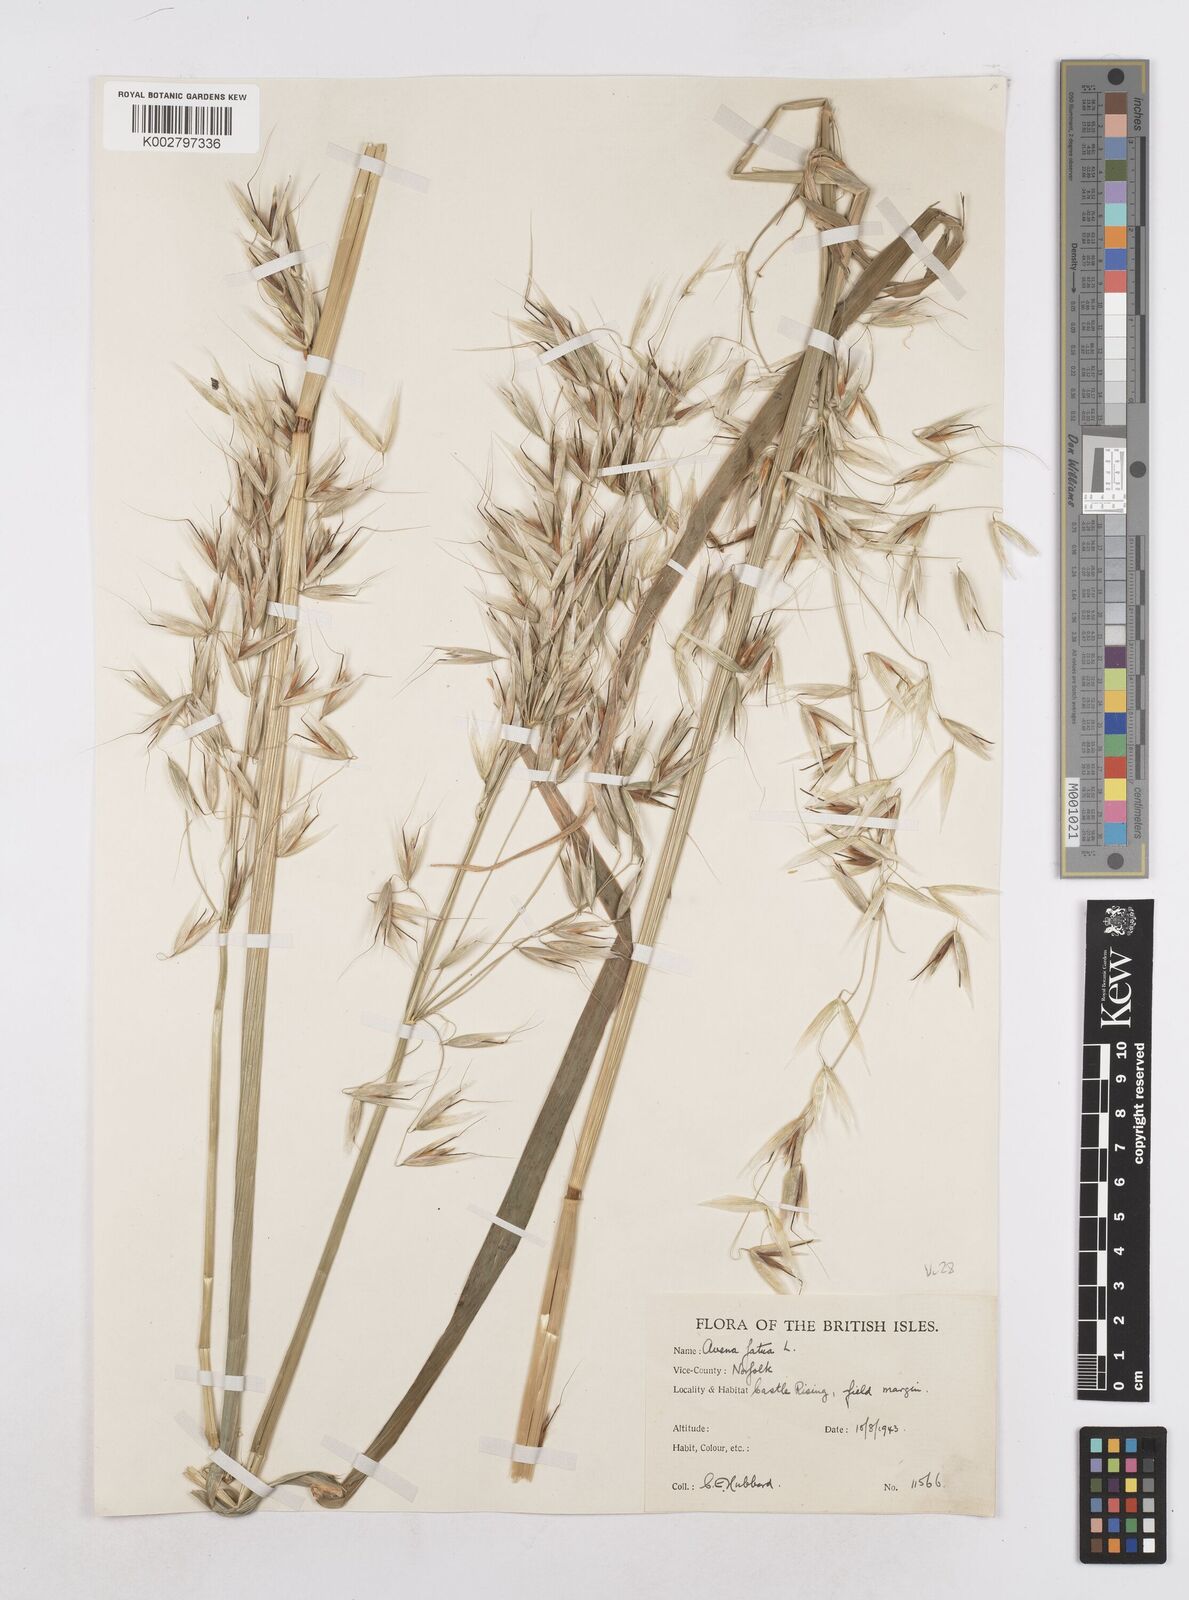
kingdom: Plantae
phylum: Tracheophyta
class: Liliopsida
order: Poales
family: Poaceae
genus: Avena
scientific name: Avena fatua
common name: Wild oat
